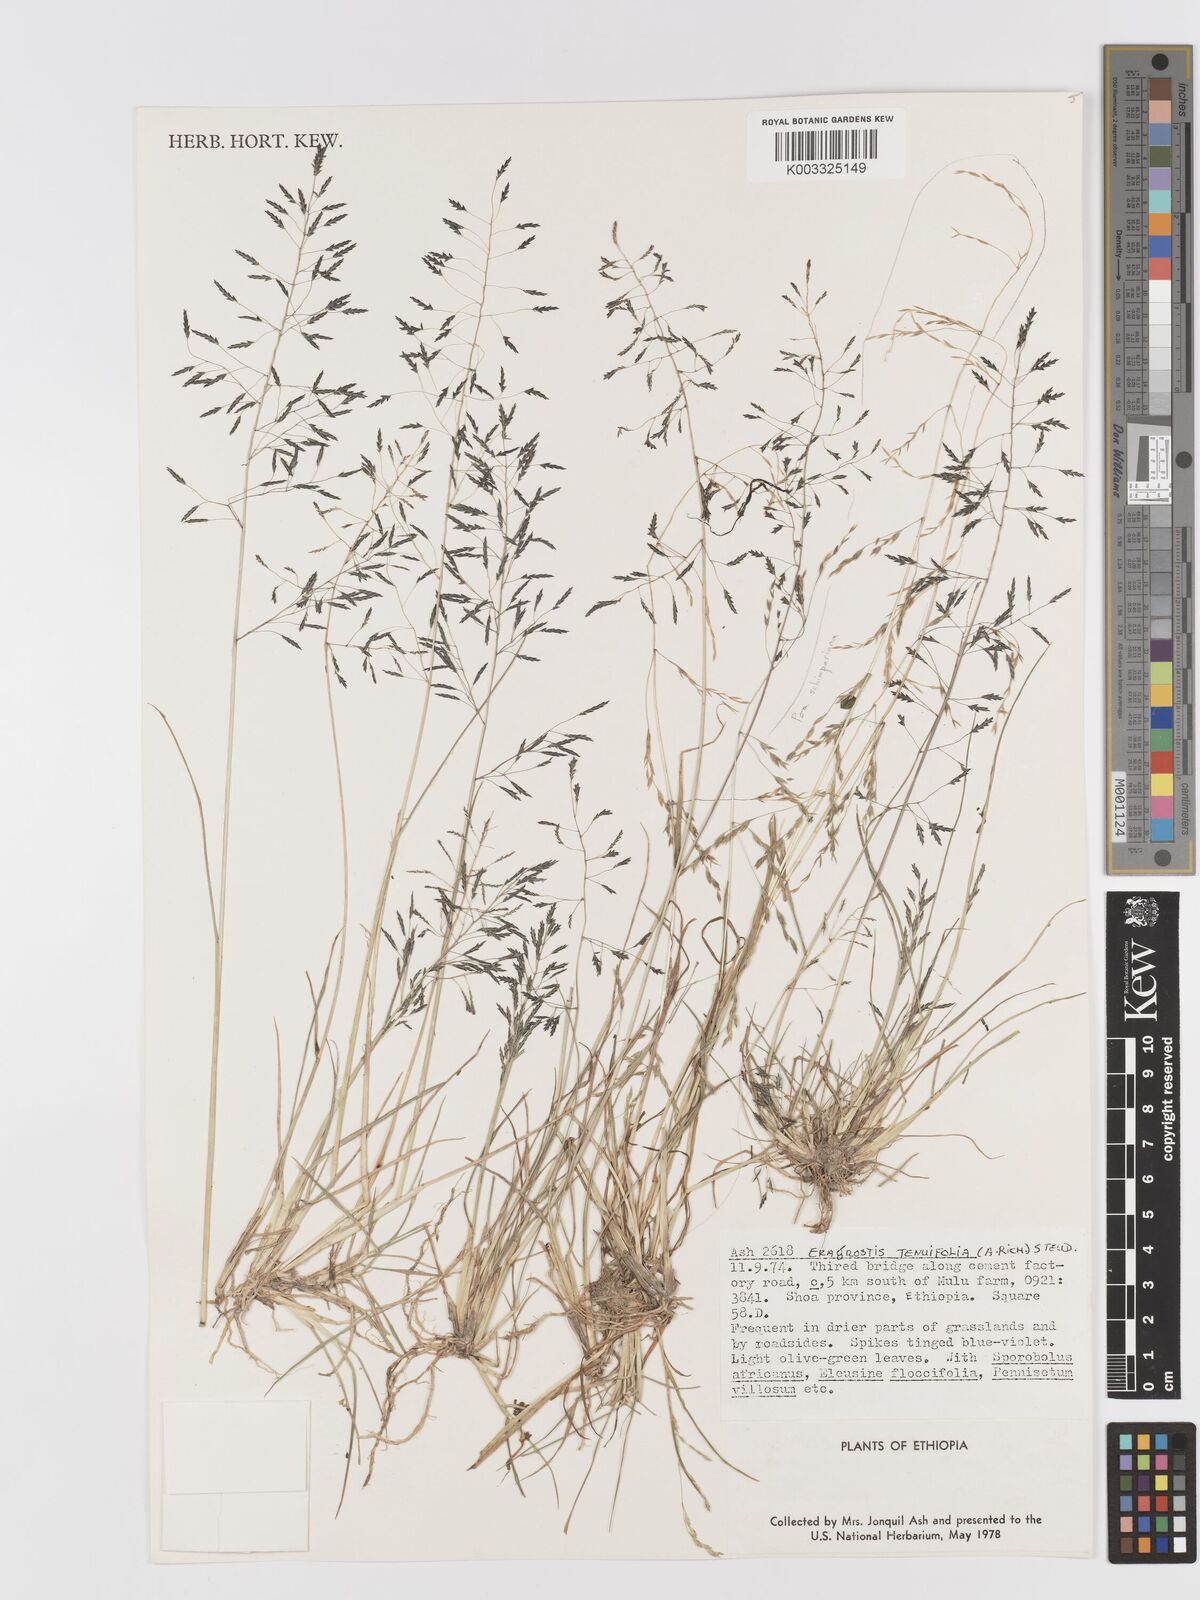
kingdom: Plantae
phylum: Tracheophyta
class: Liliopsida
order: Poales
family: Poaceae
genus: Eragrostis
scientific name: Eragrostis tenuifolia
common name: Elastic grass
